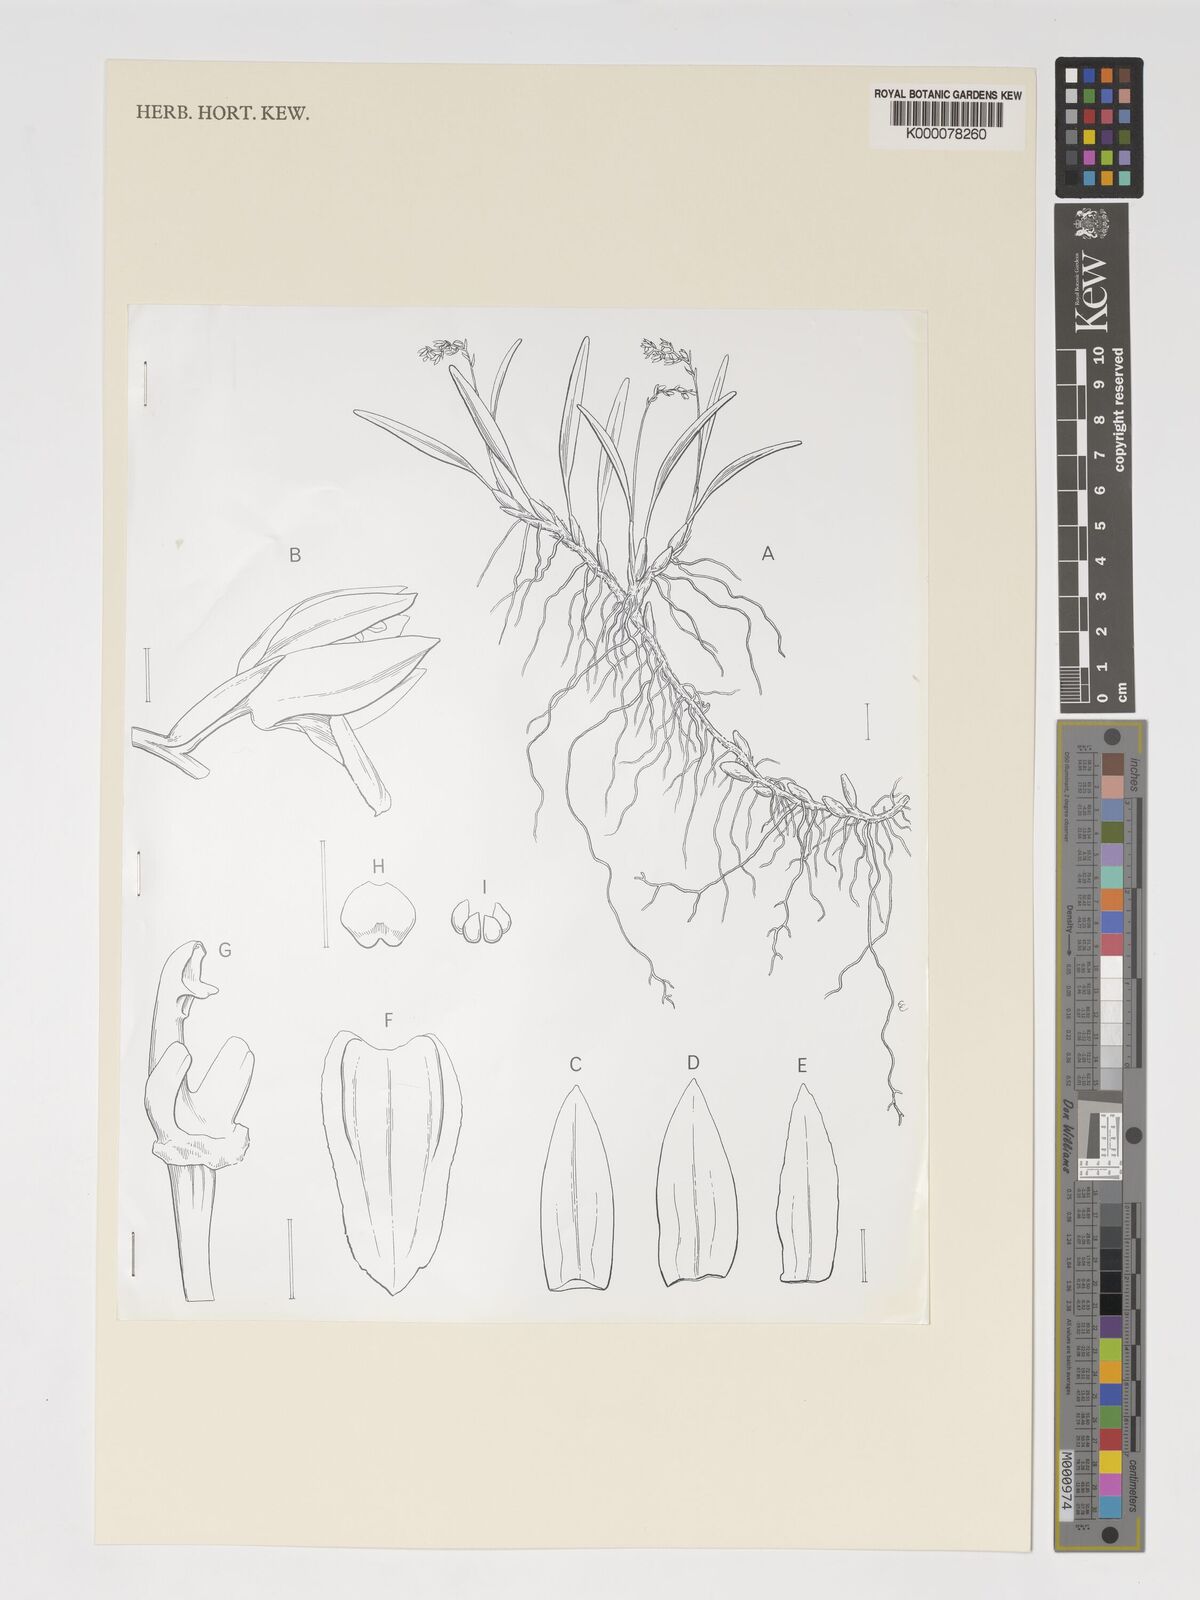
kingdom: Plantae
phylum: Tracheophyta
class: Liliopsida
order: Asparagales
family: Orchidaceae
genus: Coelogyne
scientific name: Coelogyne suratii
